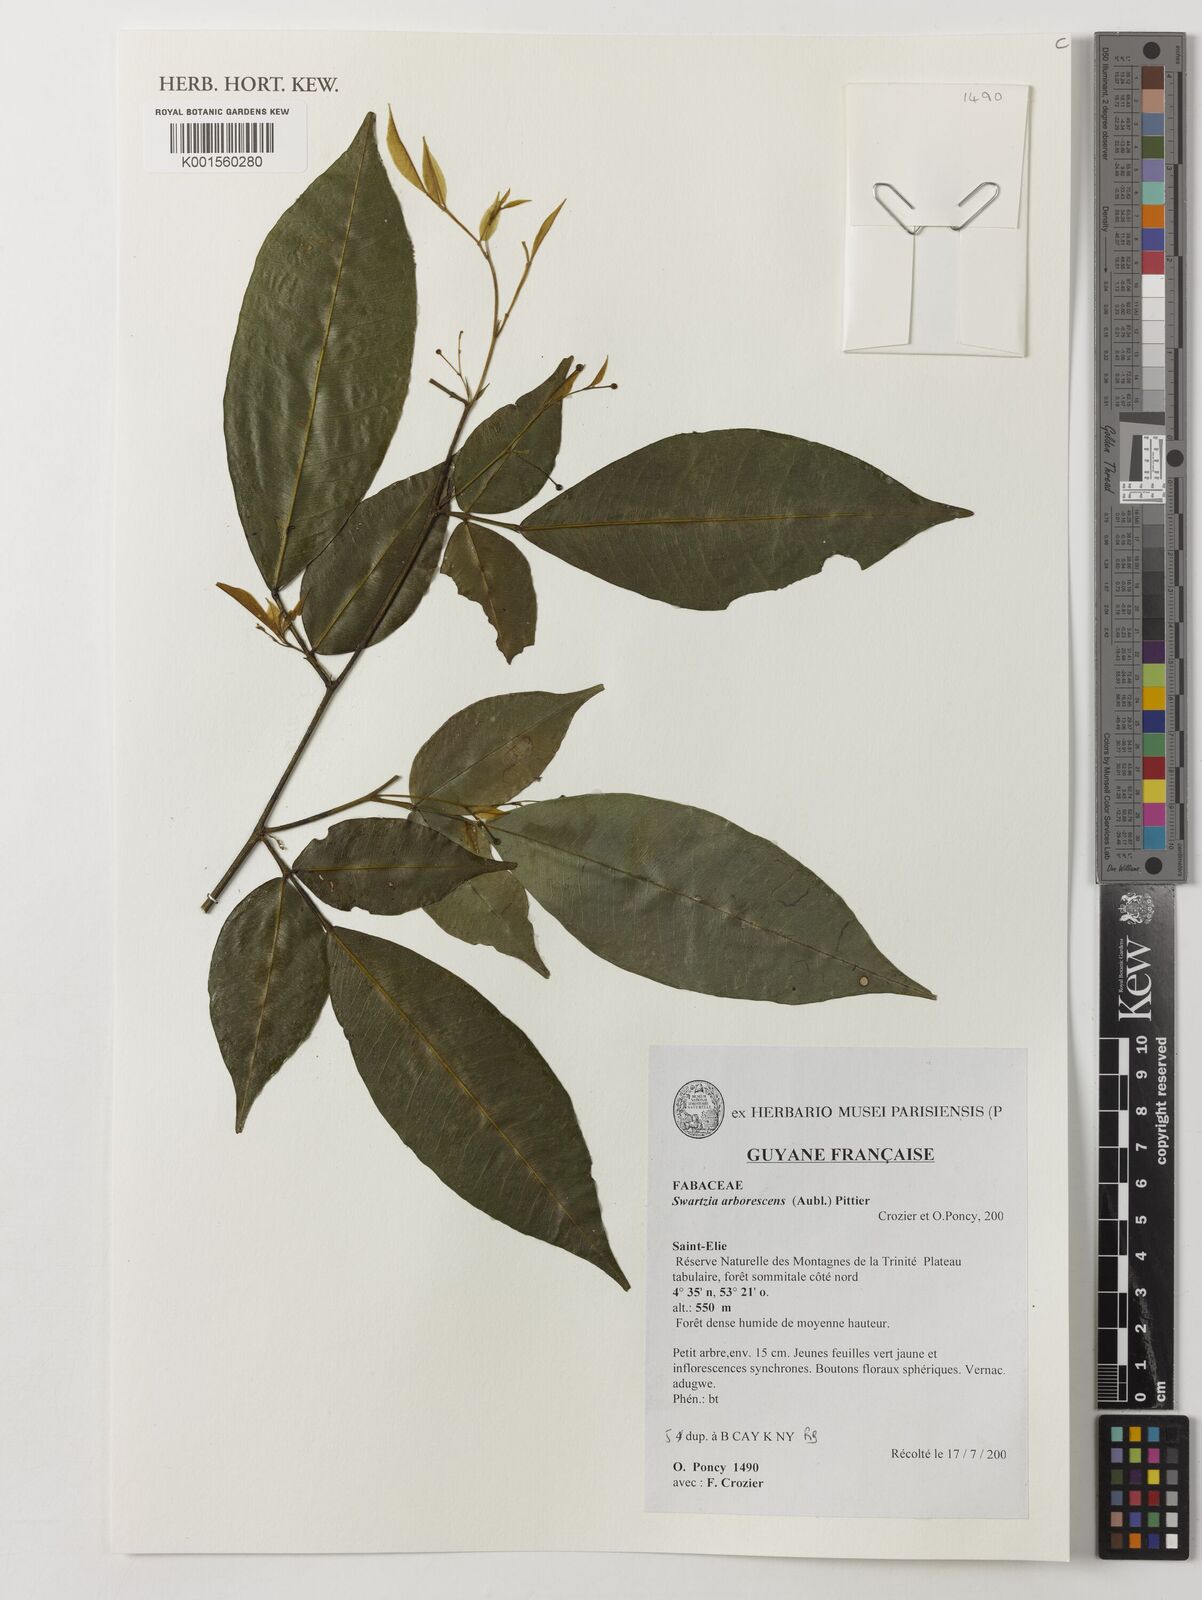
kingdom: Plantae
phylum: Tracheophyta
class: Magnoliopsida
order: Fabales
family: Fabaceae
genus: Swartzia
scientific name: Swartzia arborescens
